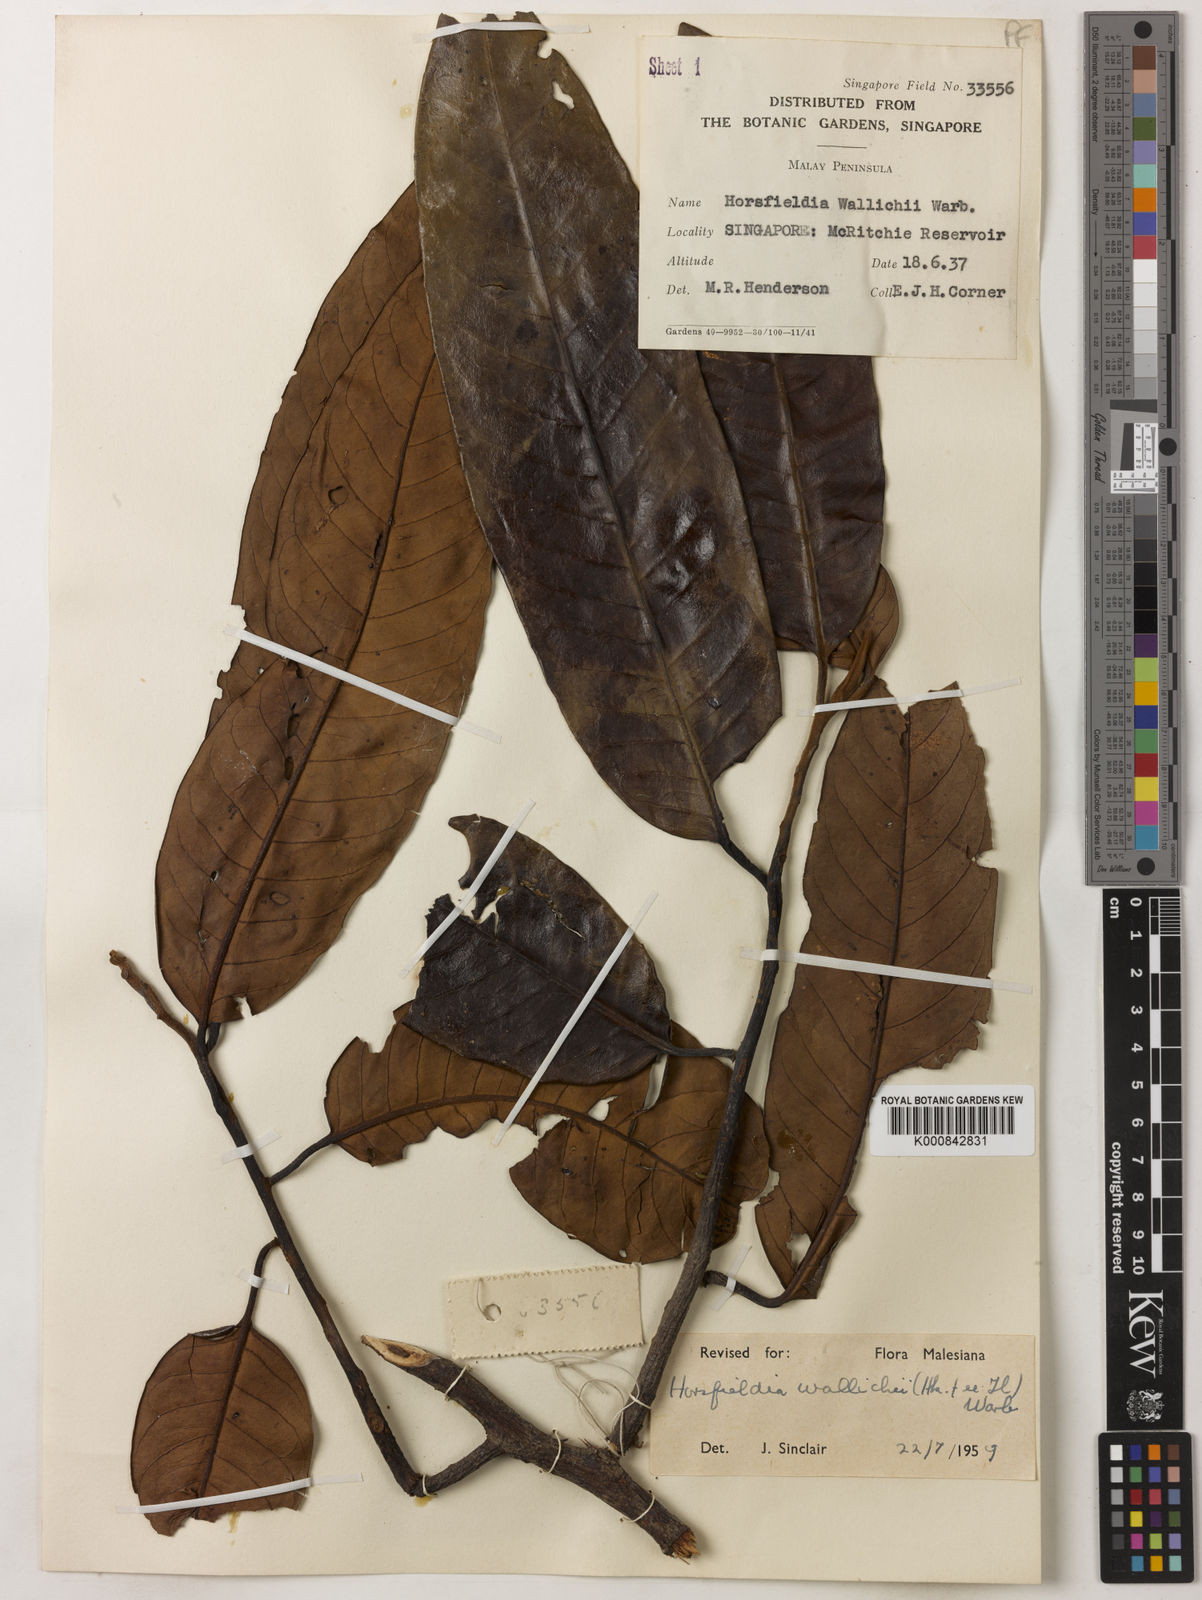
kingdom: Plantae
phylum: Tracheophyta
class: Magnoliopsida
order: Magnoliales
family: Myristicaceae
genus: Horsfieldia
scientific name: Horsfieldia wallichii
